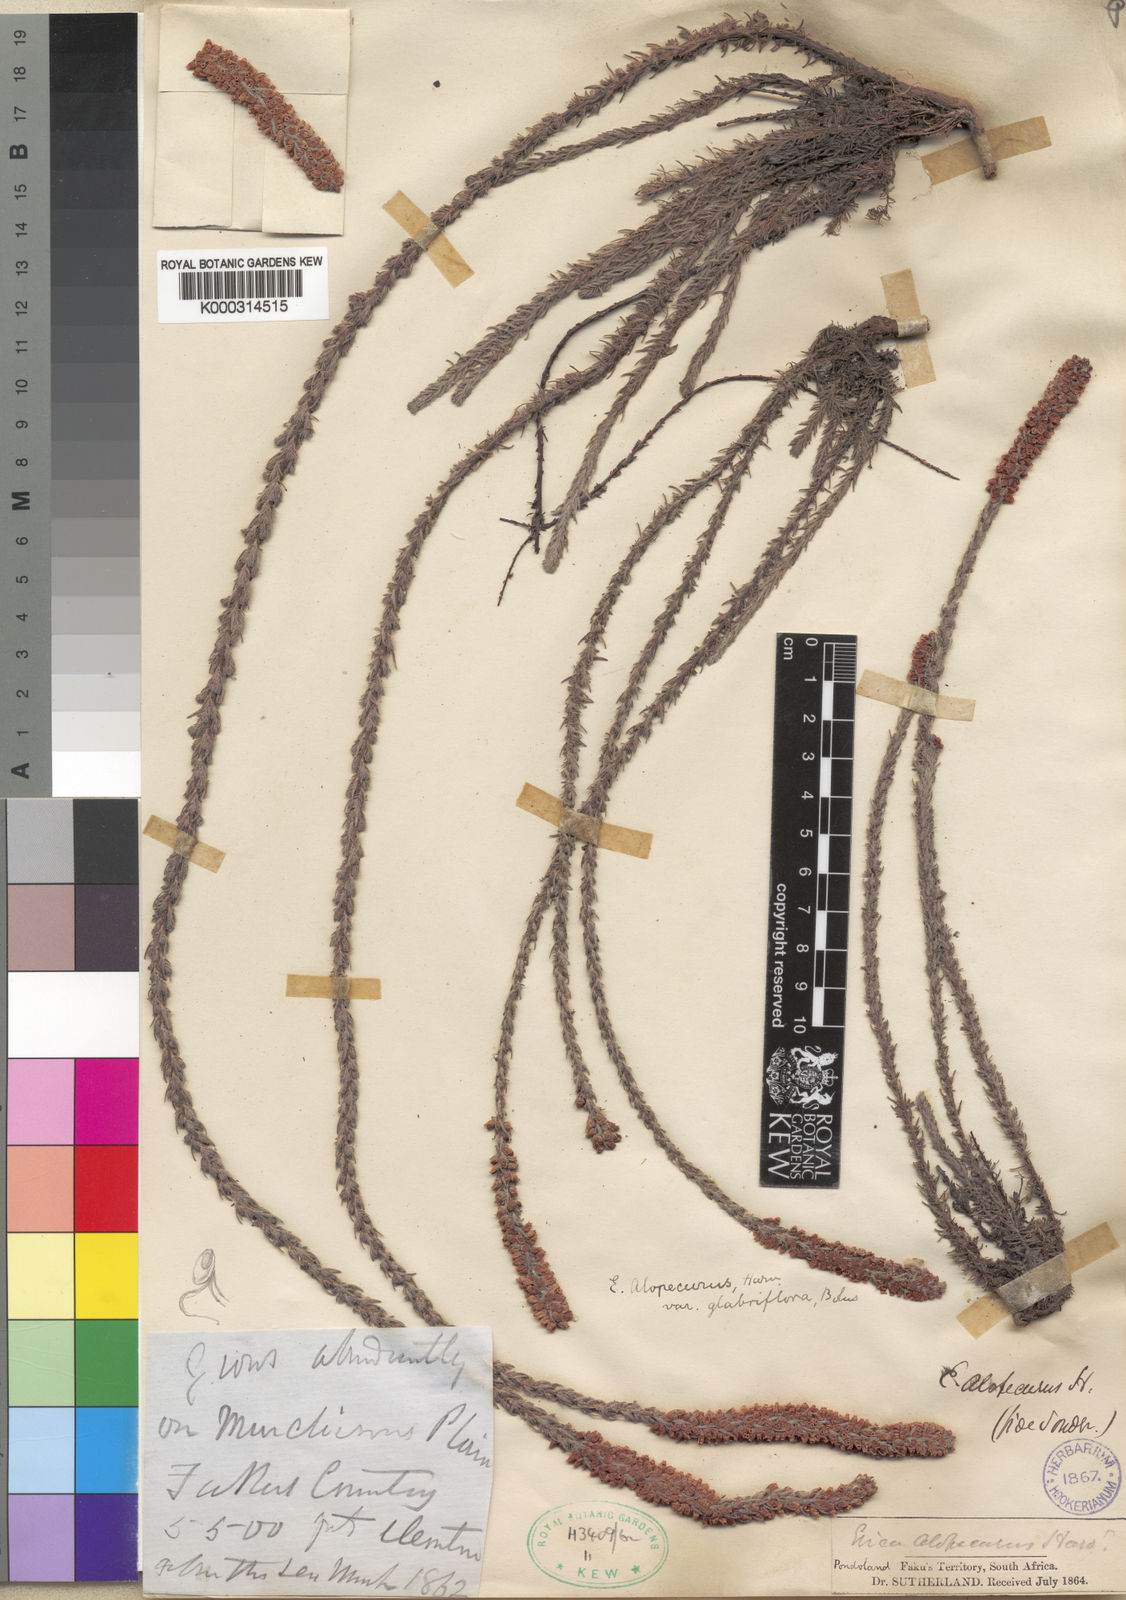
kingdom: Plantae
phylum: Tracheophyta
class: Magnoliopsida
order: Ericales
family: Ericaceae
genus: Erica
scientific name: Erica alopecurus
